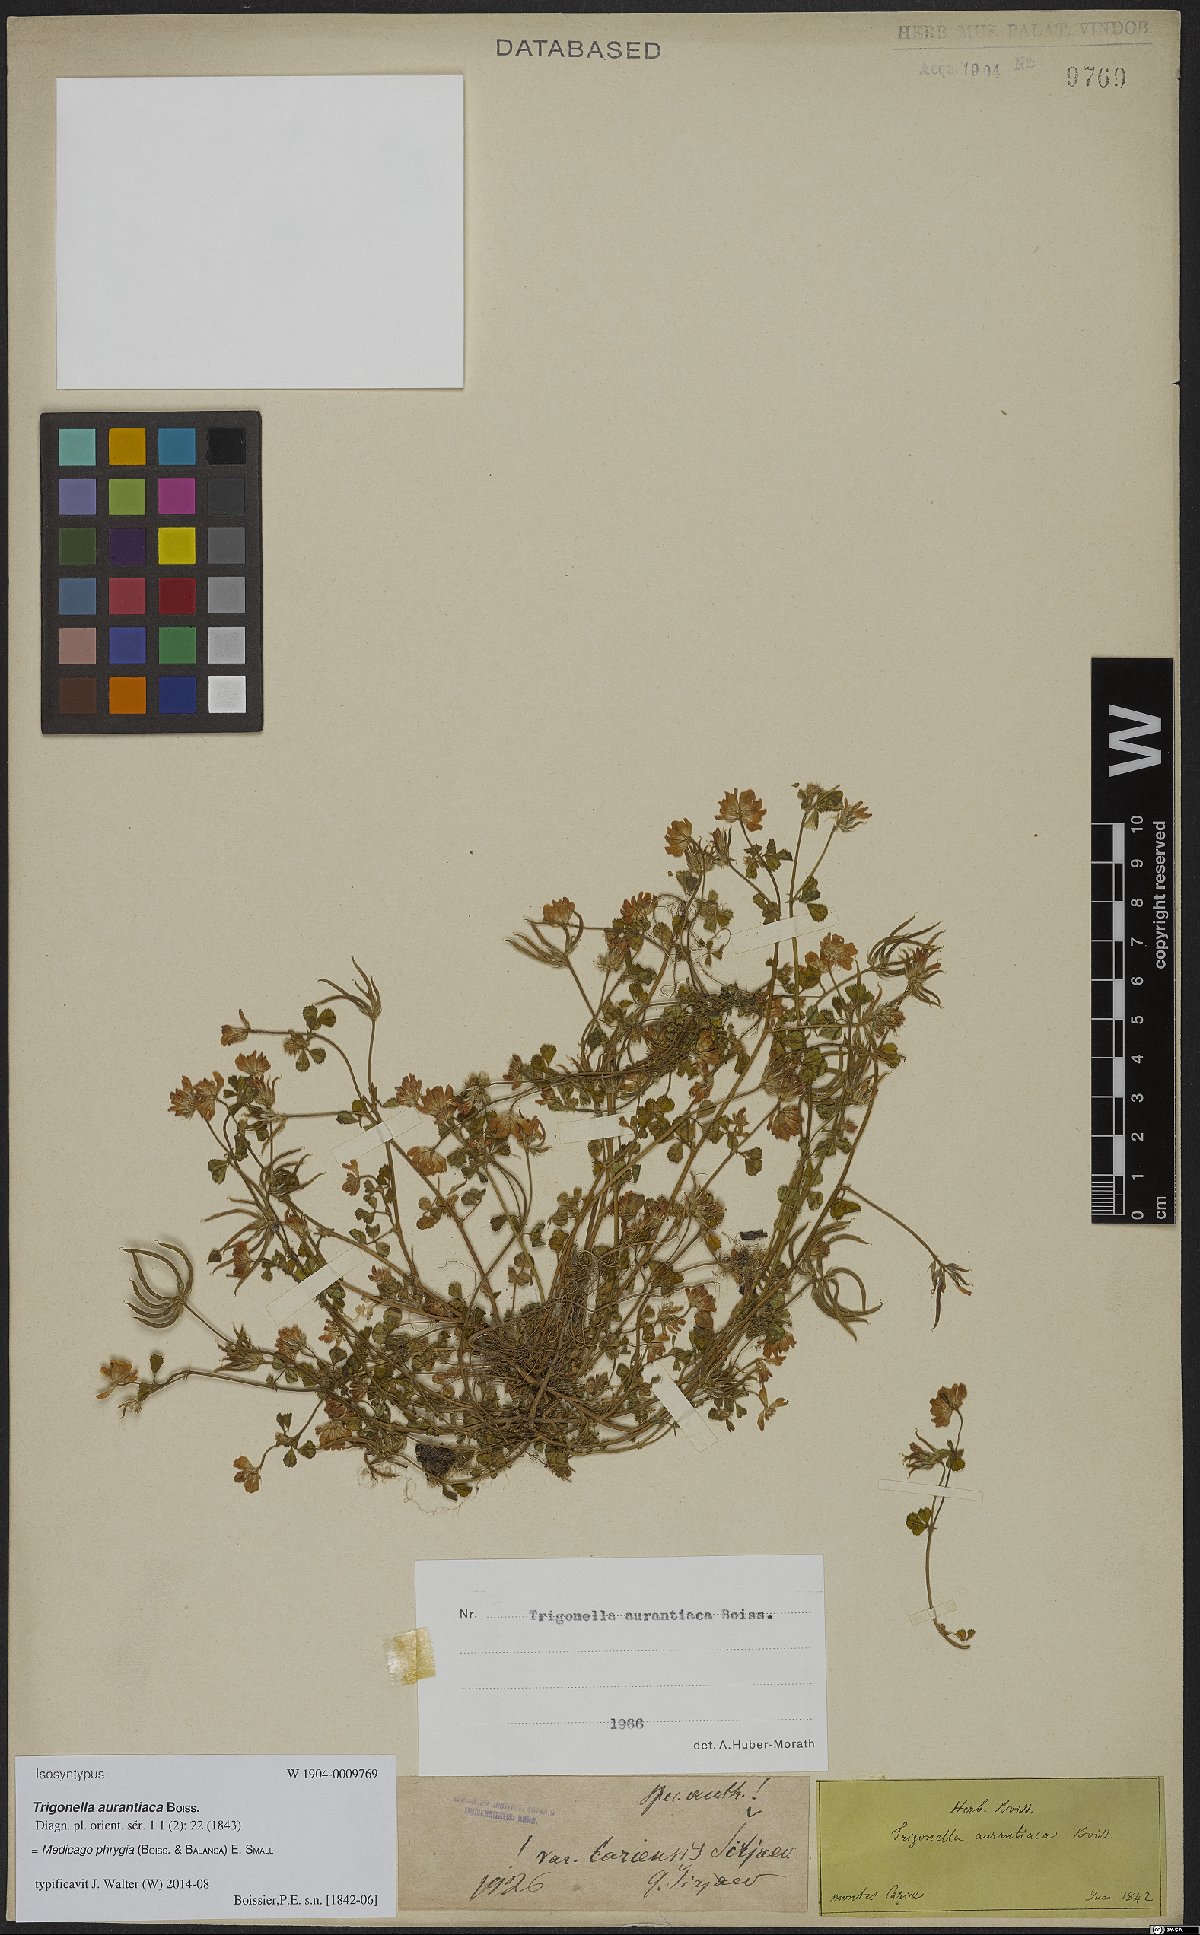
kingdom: Plantae
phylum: Tracheophyta
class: Magnoliopsida
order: Fabales
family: Fabaceae
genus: Medicago
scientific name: Medicago phrygia
